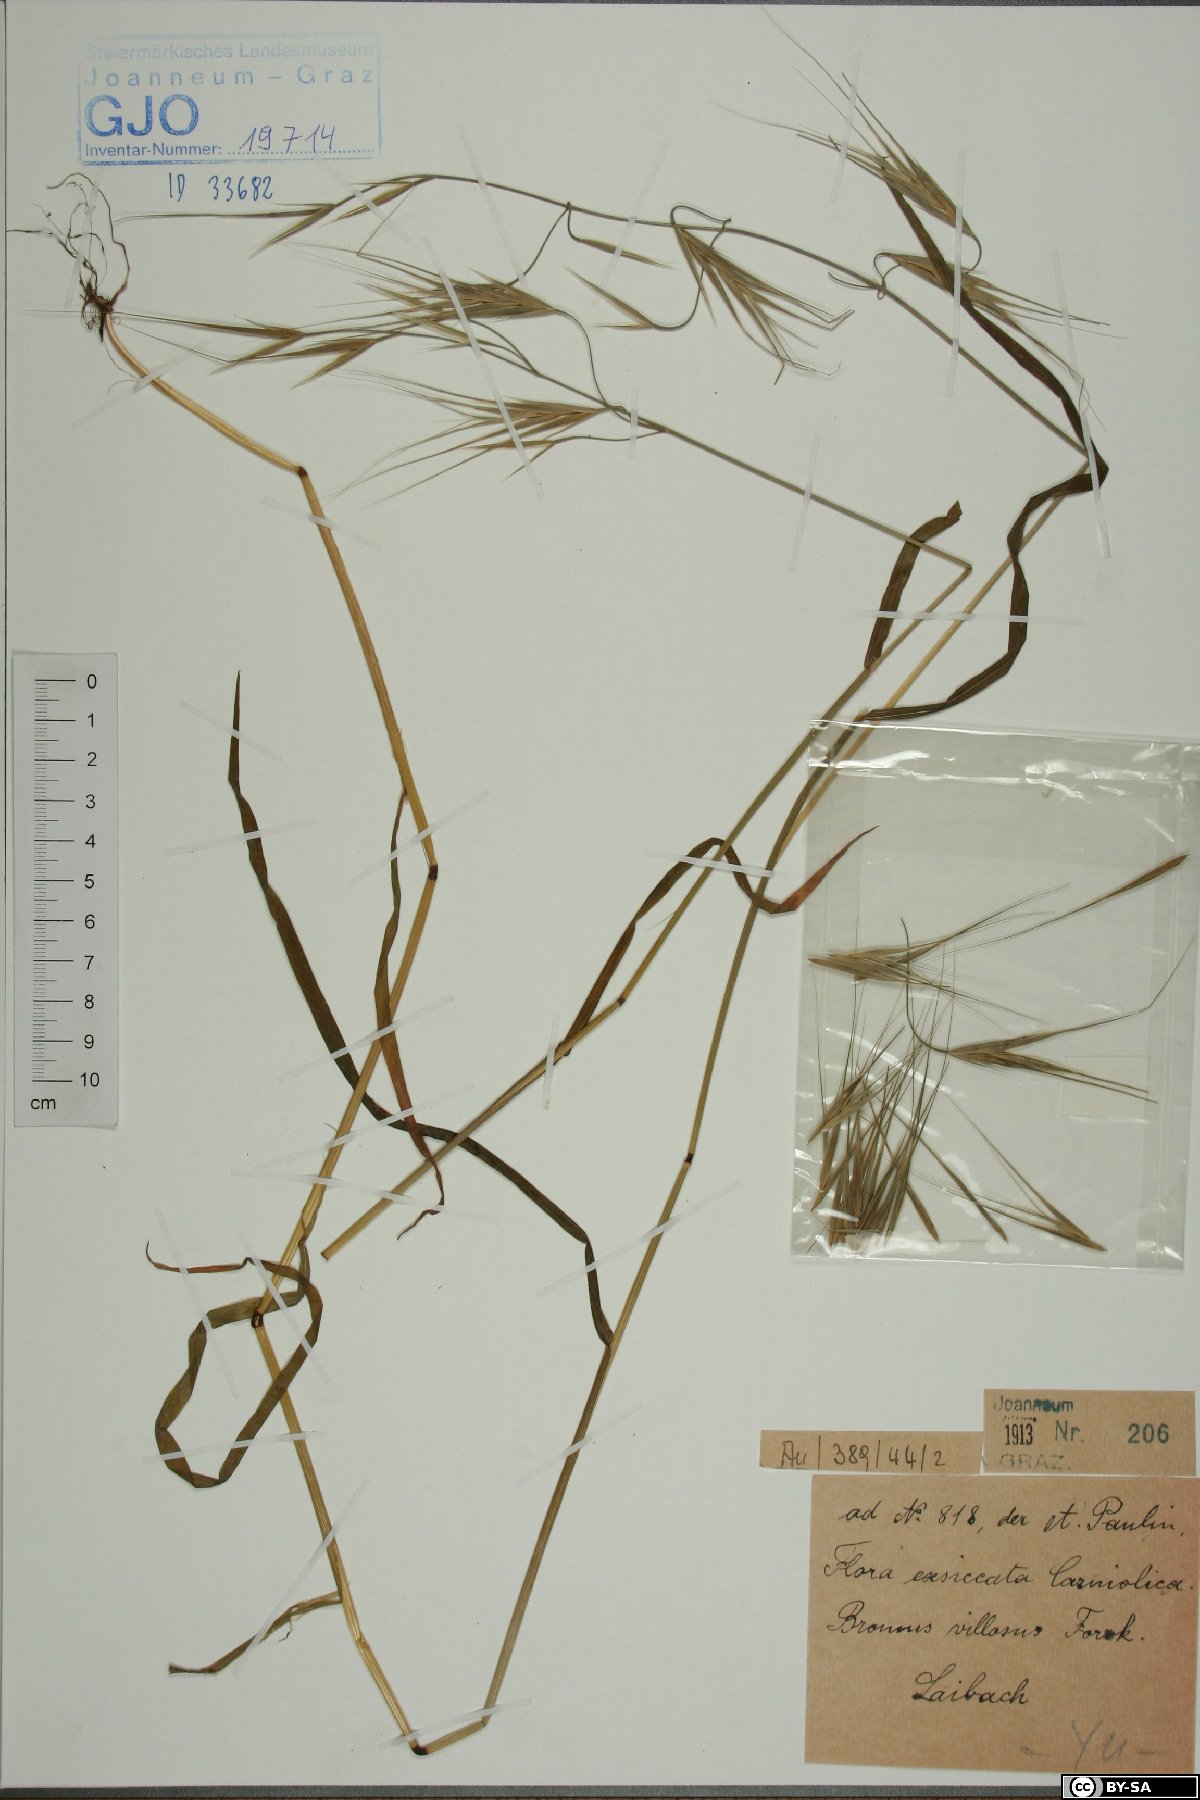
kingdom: Plantae
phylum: Tracheophyta
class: Liliopsida
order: Poales
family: Poaceae
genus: Bromus
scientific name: Bromus squarrosus
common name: Corn brome
